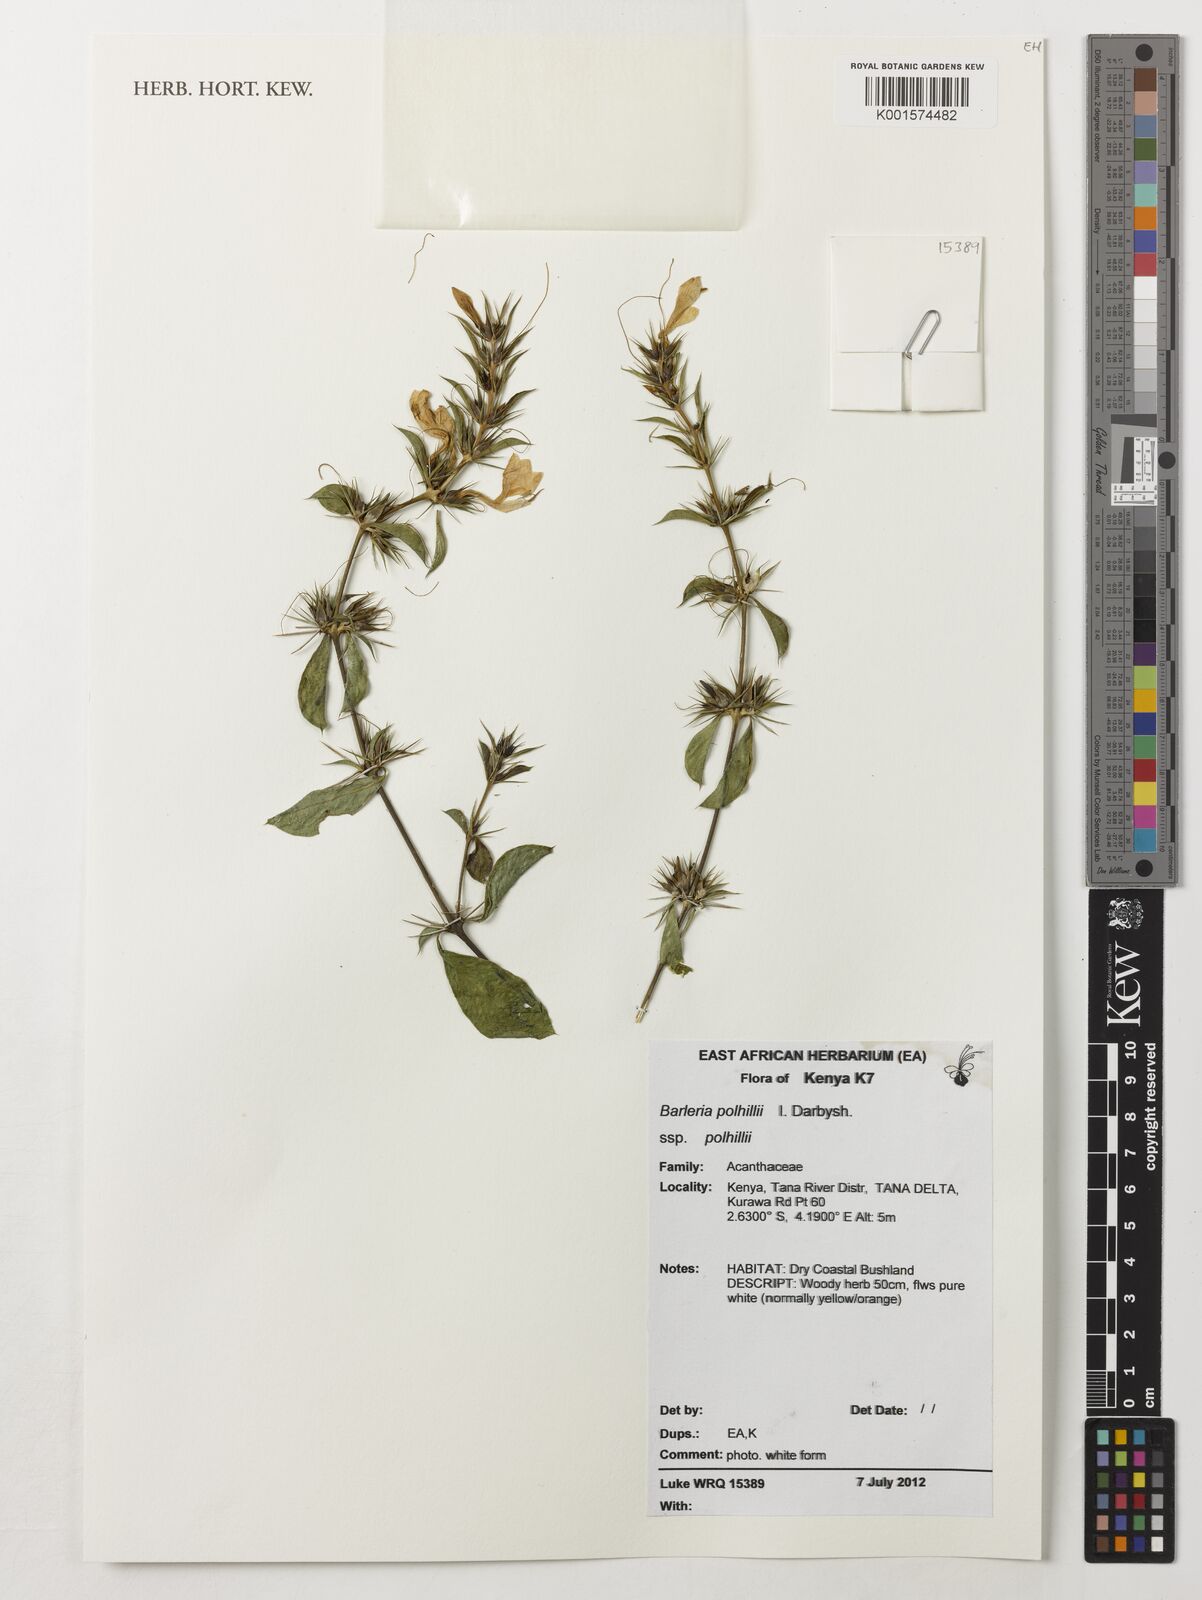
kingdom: Plantae
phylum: Tracheophyta
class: Magnoliopsida
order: Lamiales
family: Acanthaceae
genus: Barleria
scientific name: Barleria polhillii
